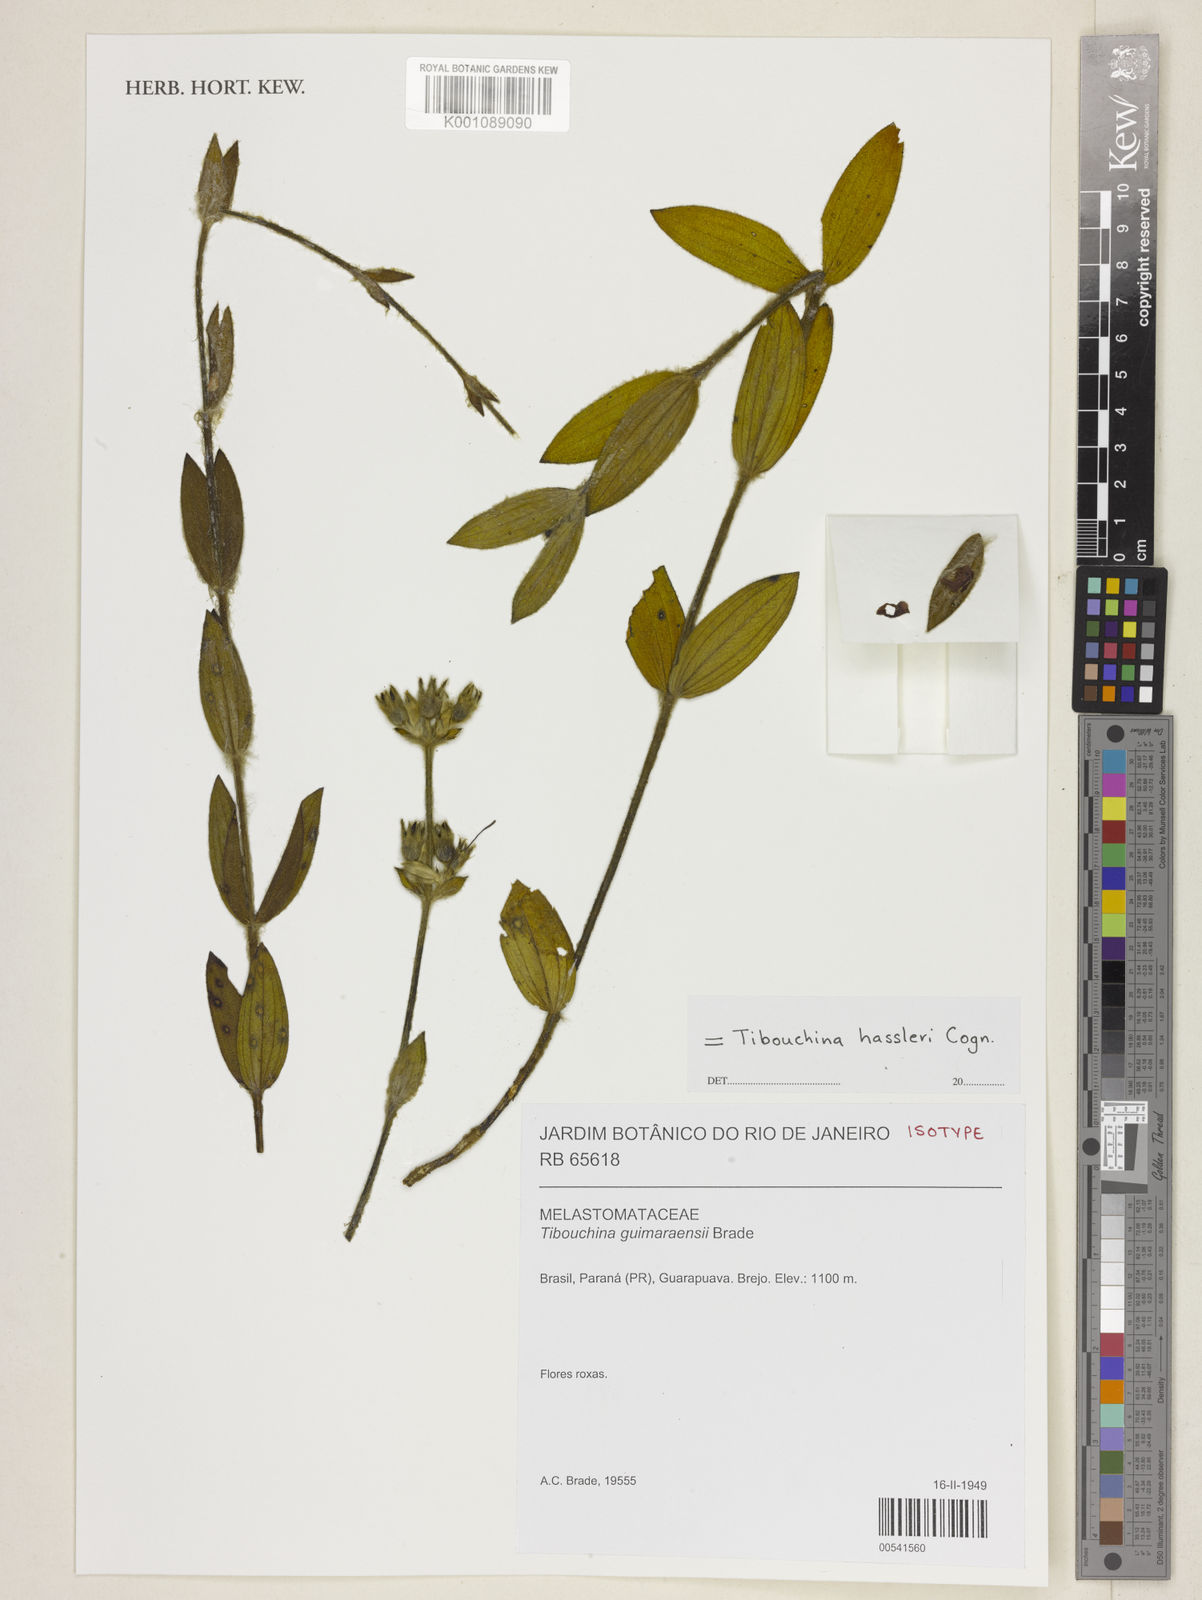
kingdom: Plantae
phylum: Tracheophyta
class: Magnoliopsida
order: Myrtales
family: Melastomataceae
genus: Chaetogastra
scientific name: Chaetogastra hassleri
